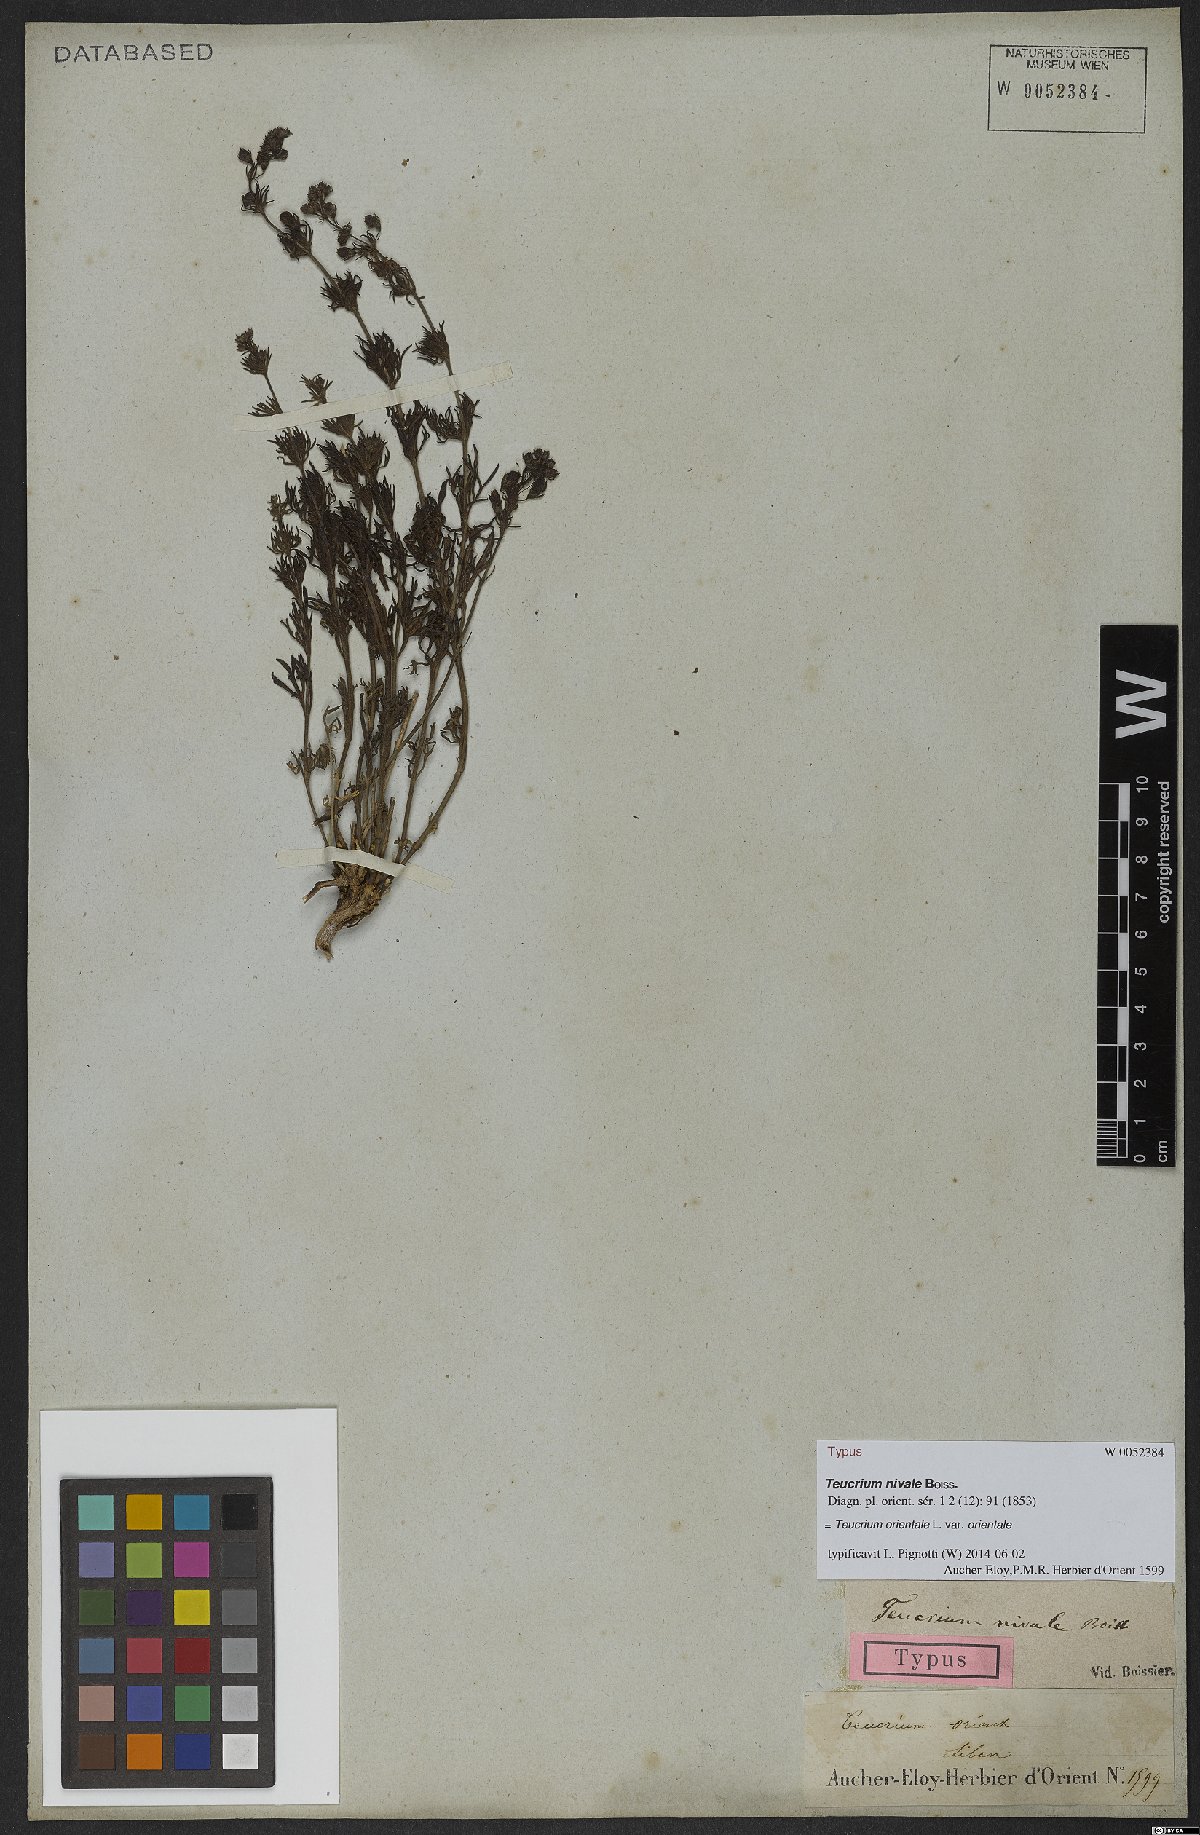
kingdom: Plantae
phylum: Tracheophyta
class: Magnoliopsida
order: Lamiales
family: Lamiaceae
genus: Teucrium
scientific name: Teucrium orientale
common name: Oriental germander
